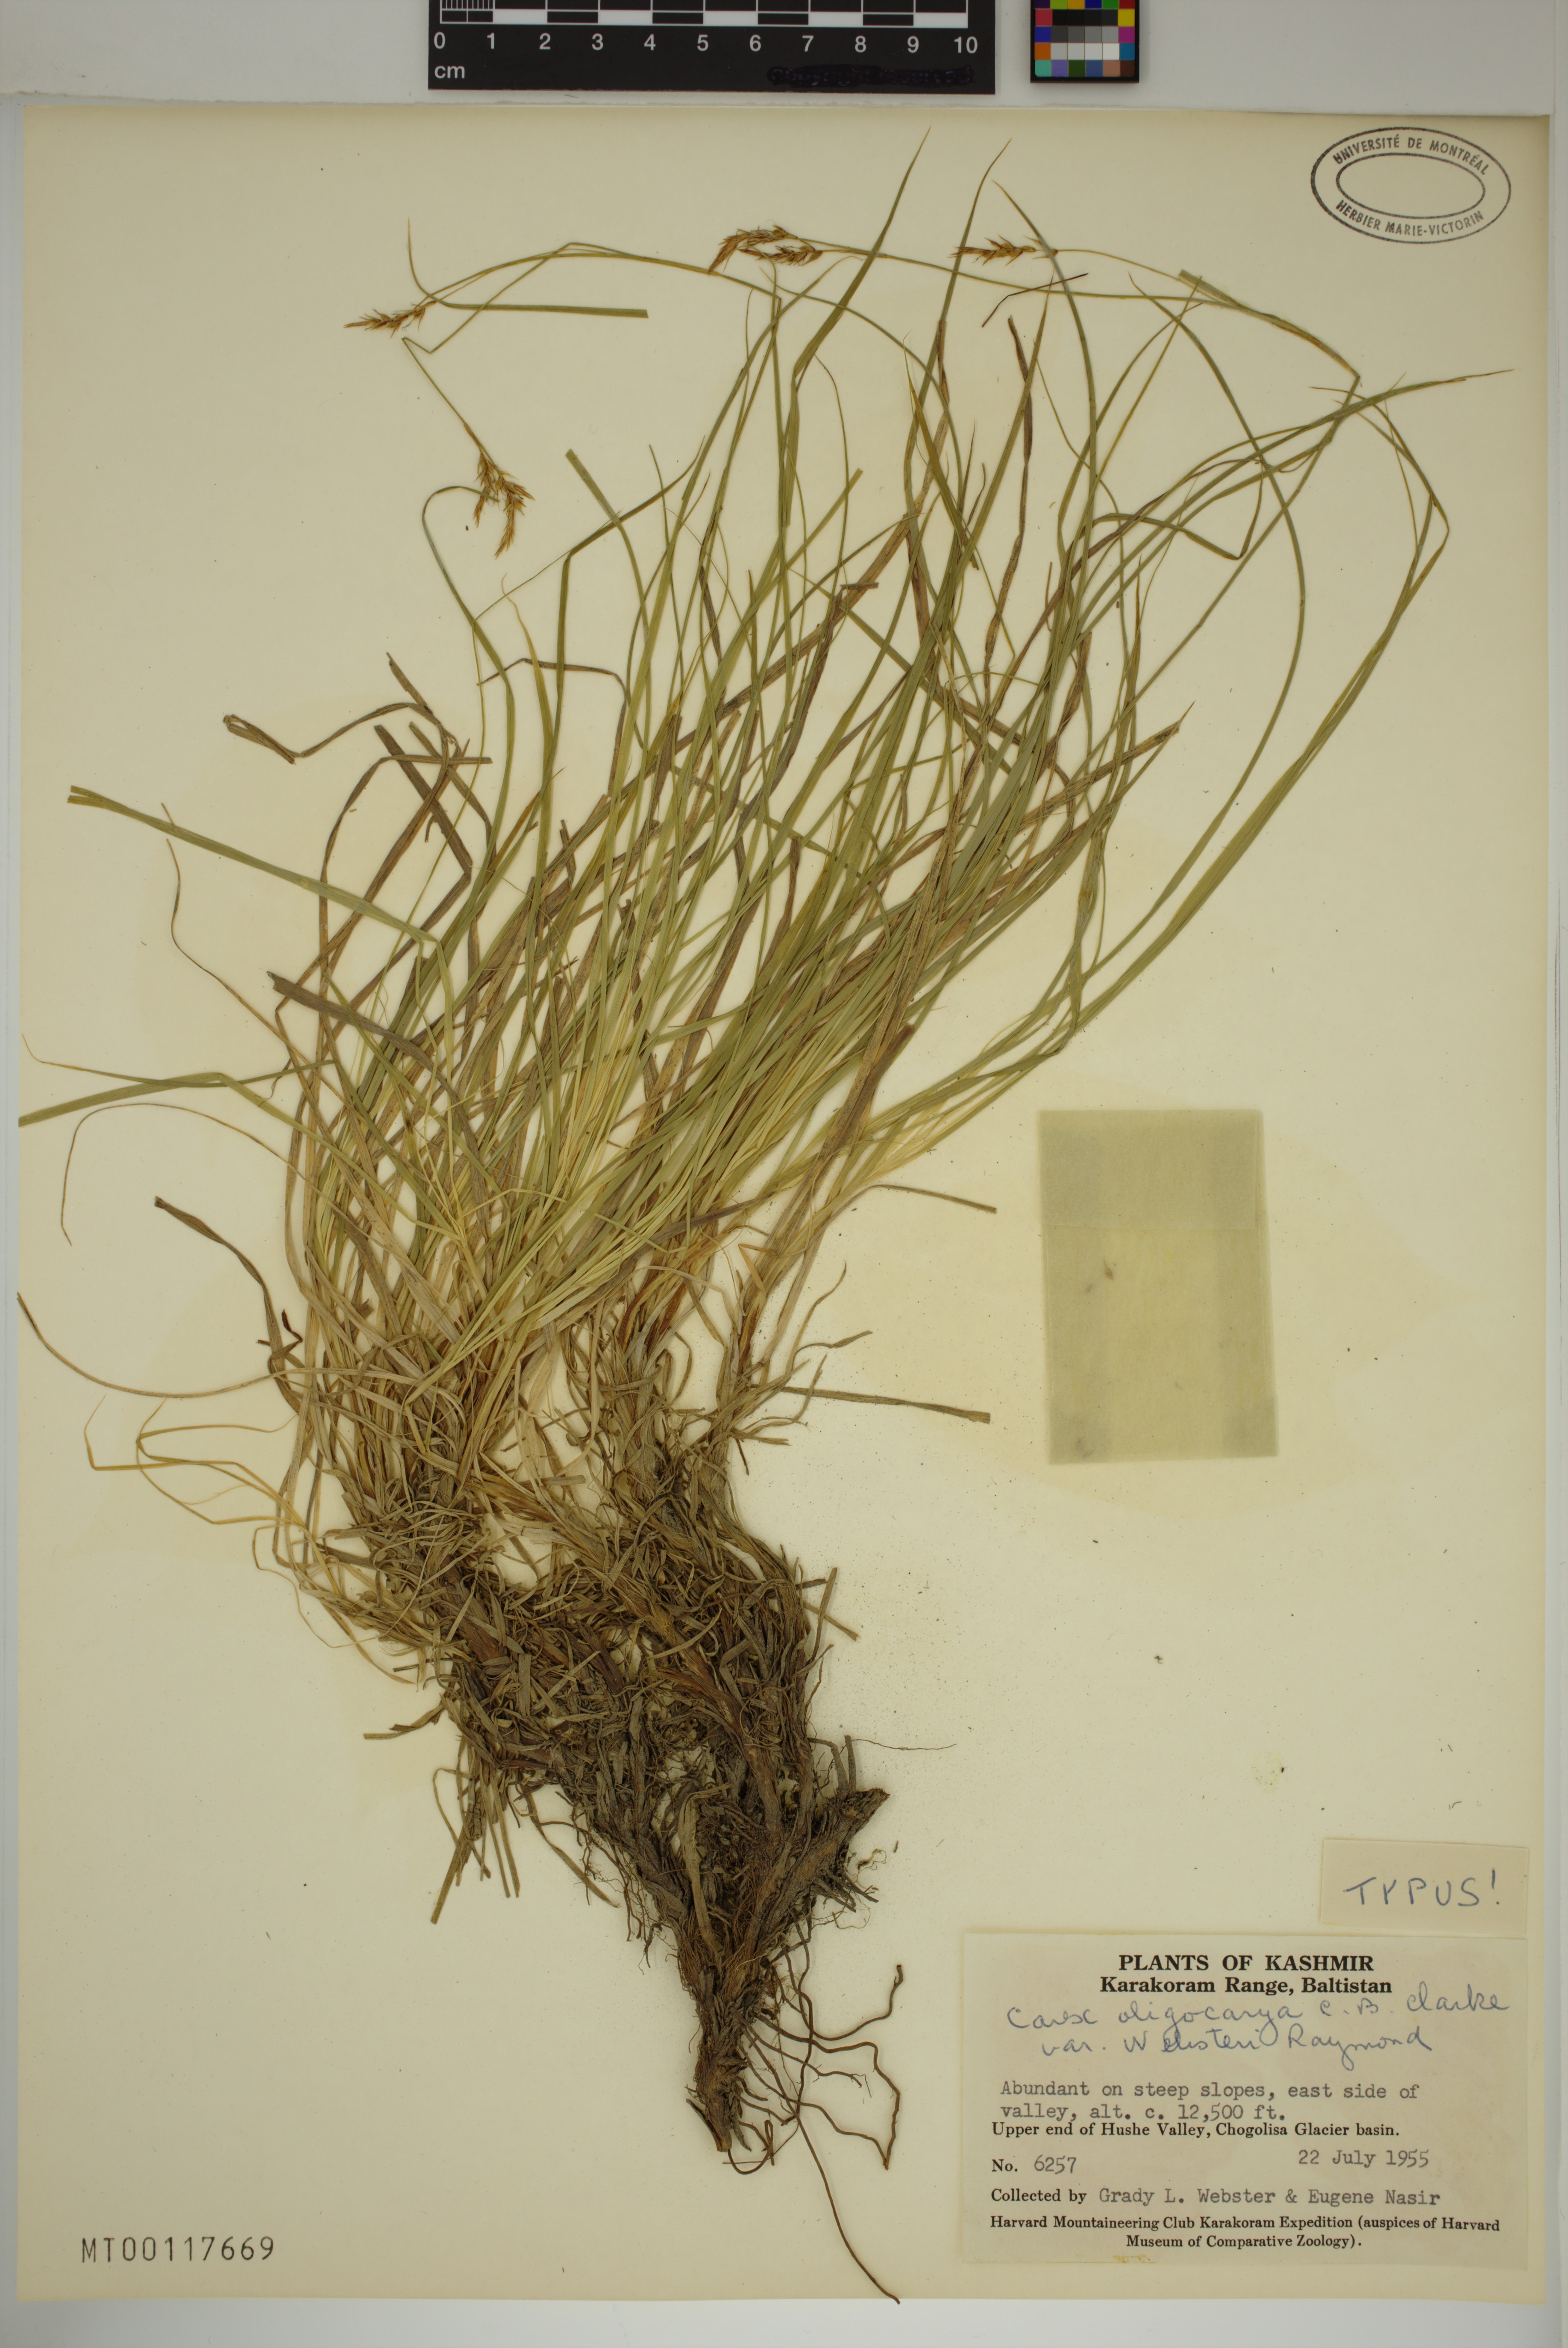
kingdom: Plantae
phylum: Tracheophyta
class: Liliopsida
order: Poales
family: Cyperaceae
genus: Carex
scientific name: Carex oligocarya
